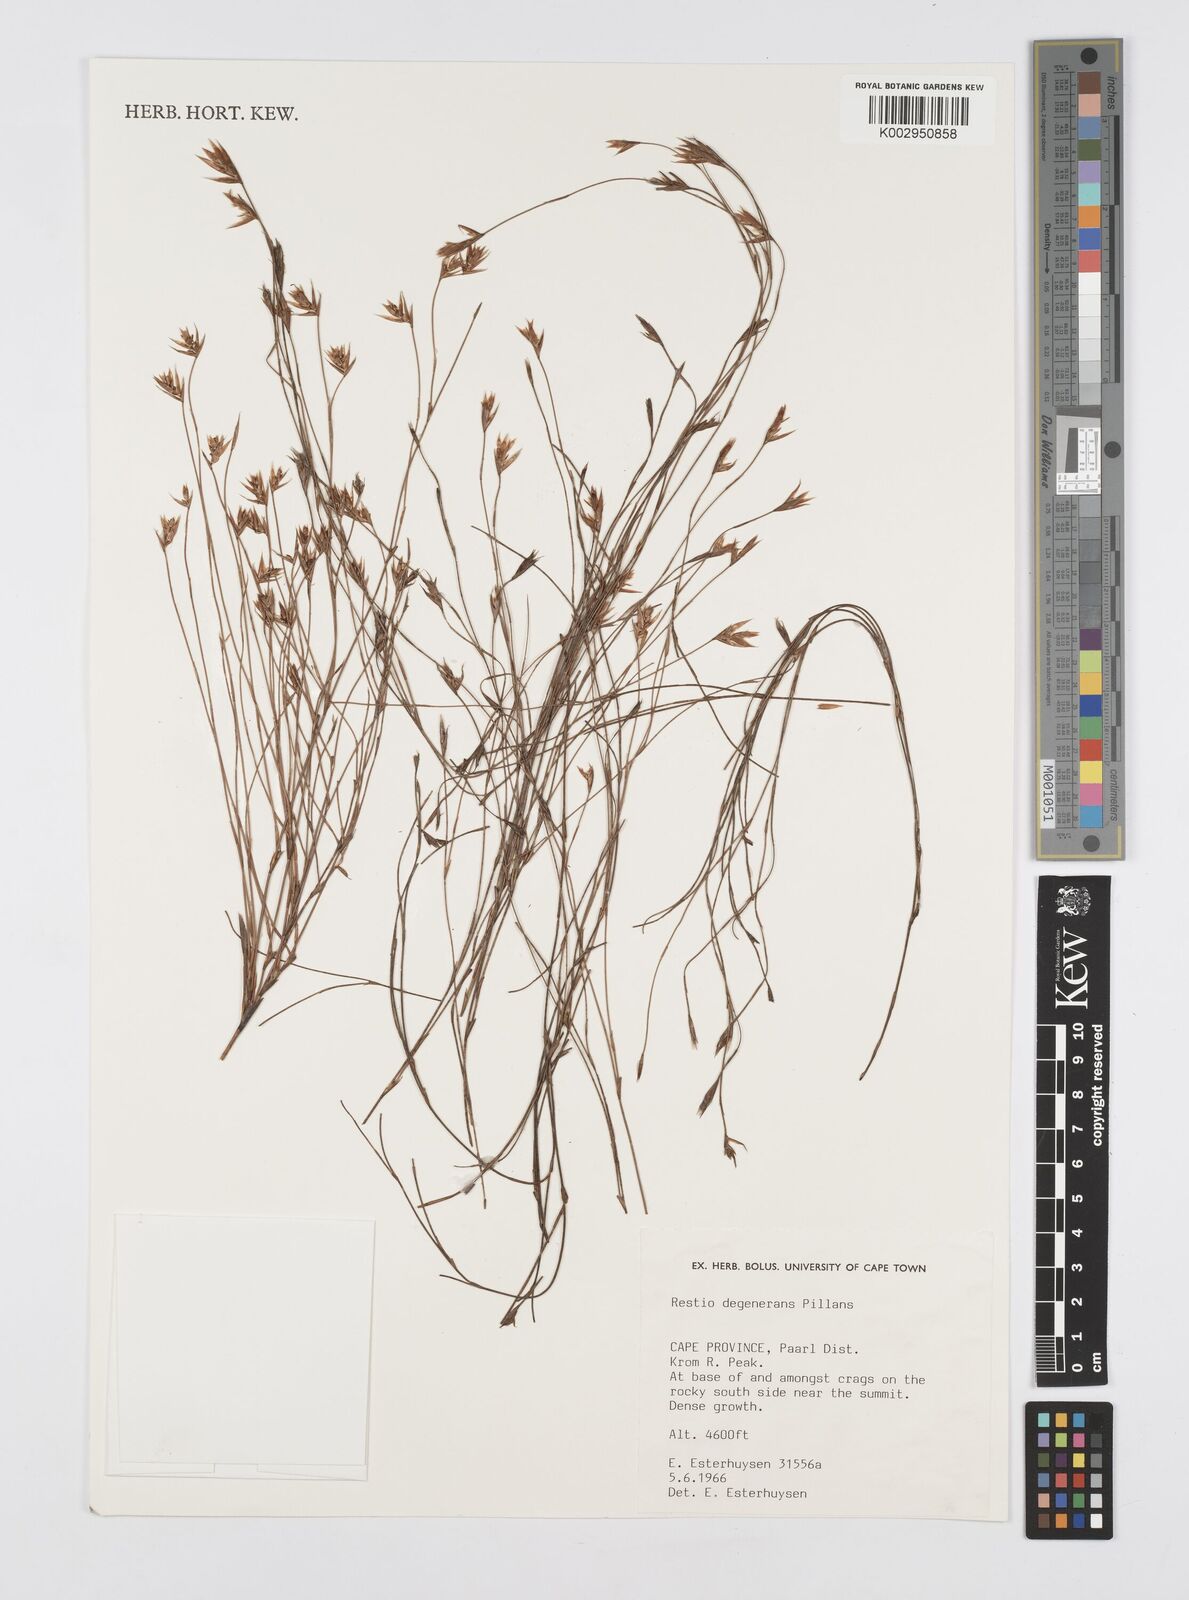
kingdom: Plantae
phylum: Tracheophyta
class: Liliopsida
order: Poales
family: Restionaceae
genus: Restio
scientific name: Restio degenerans
